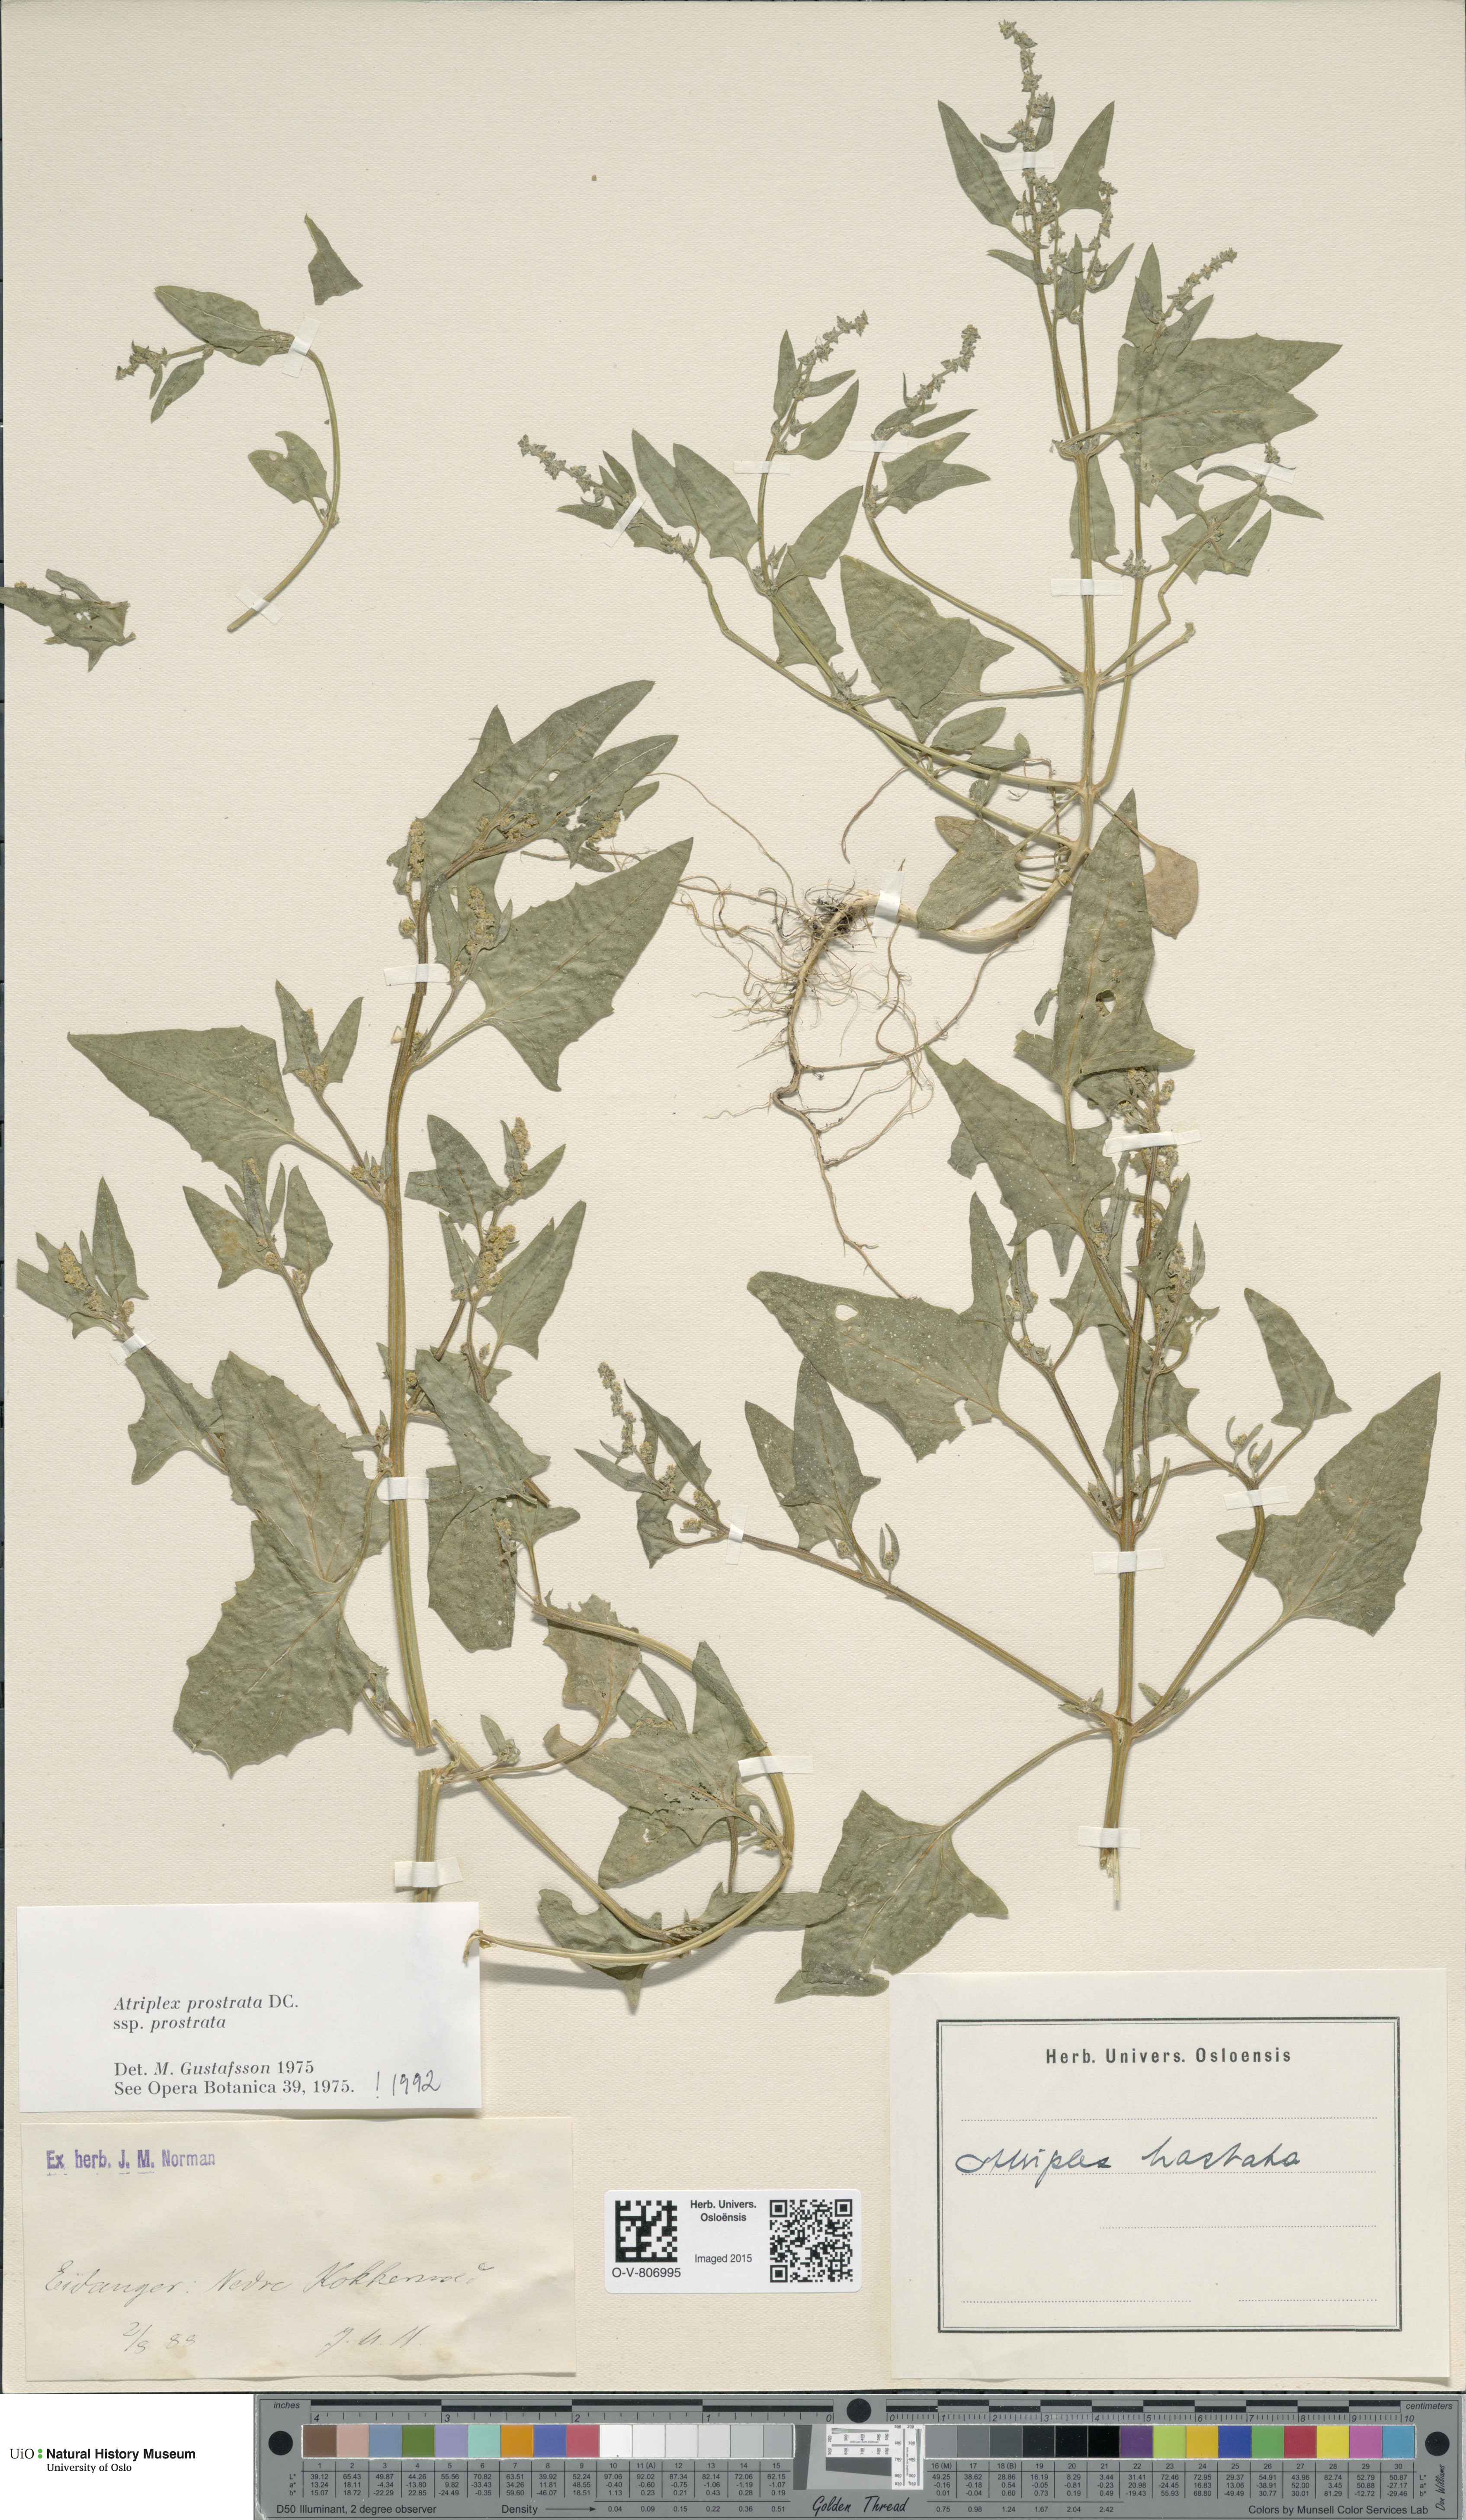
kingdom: Plantae
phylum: Tracheophyta
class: Magnoliopsida
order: Caryophyllales
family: Amaranthaceae
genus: Atriplex
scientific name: Atriplex prostrata
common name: Spear-leaved orache
